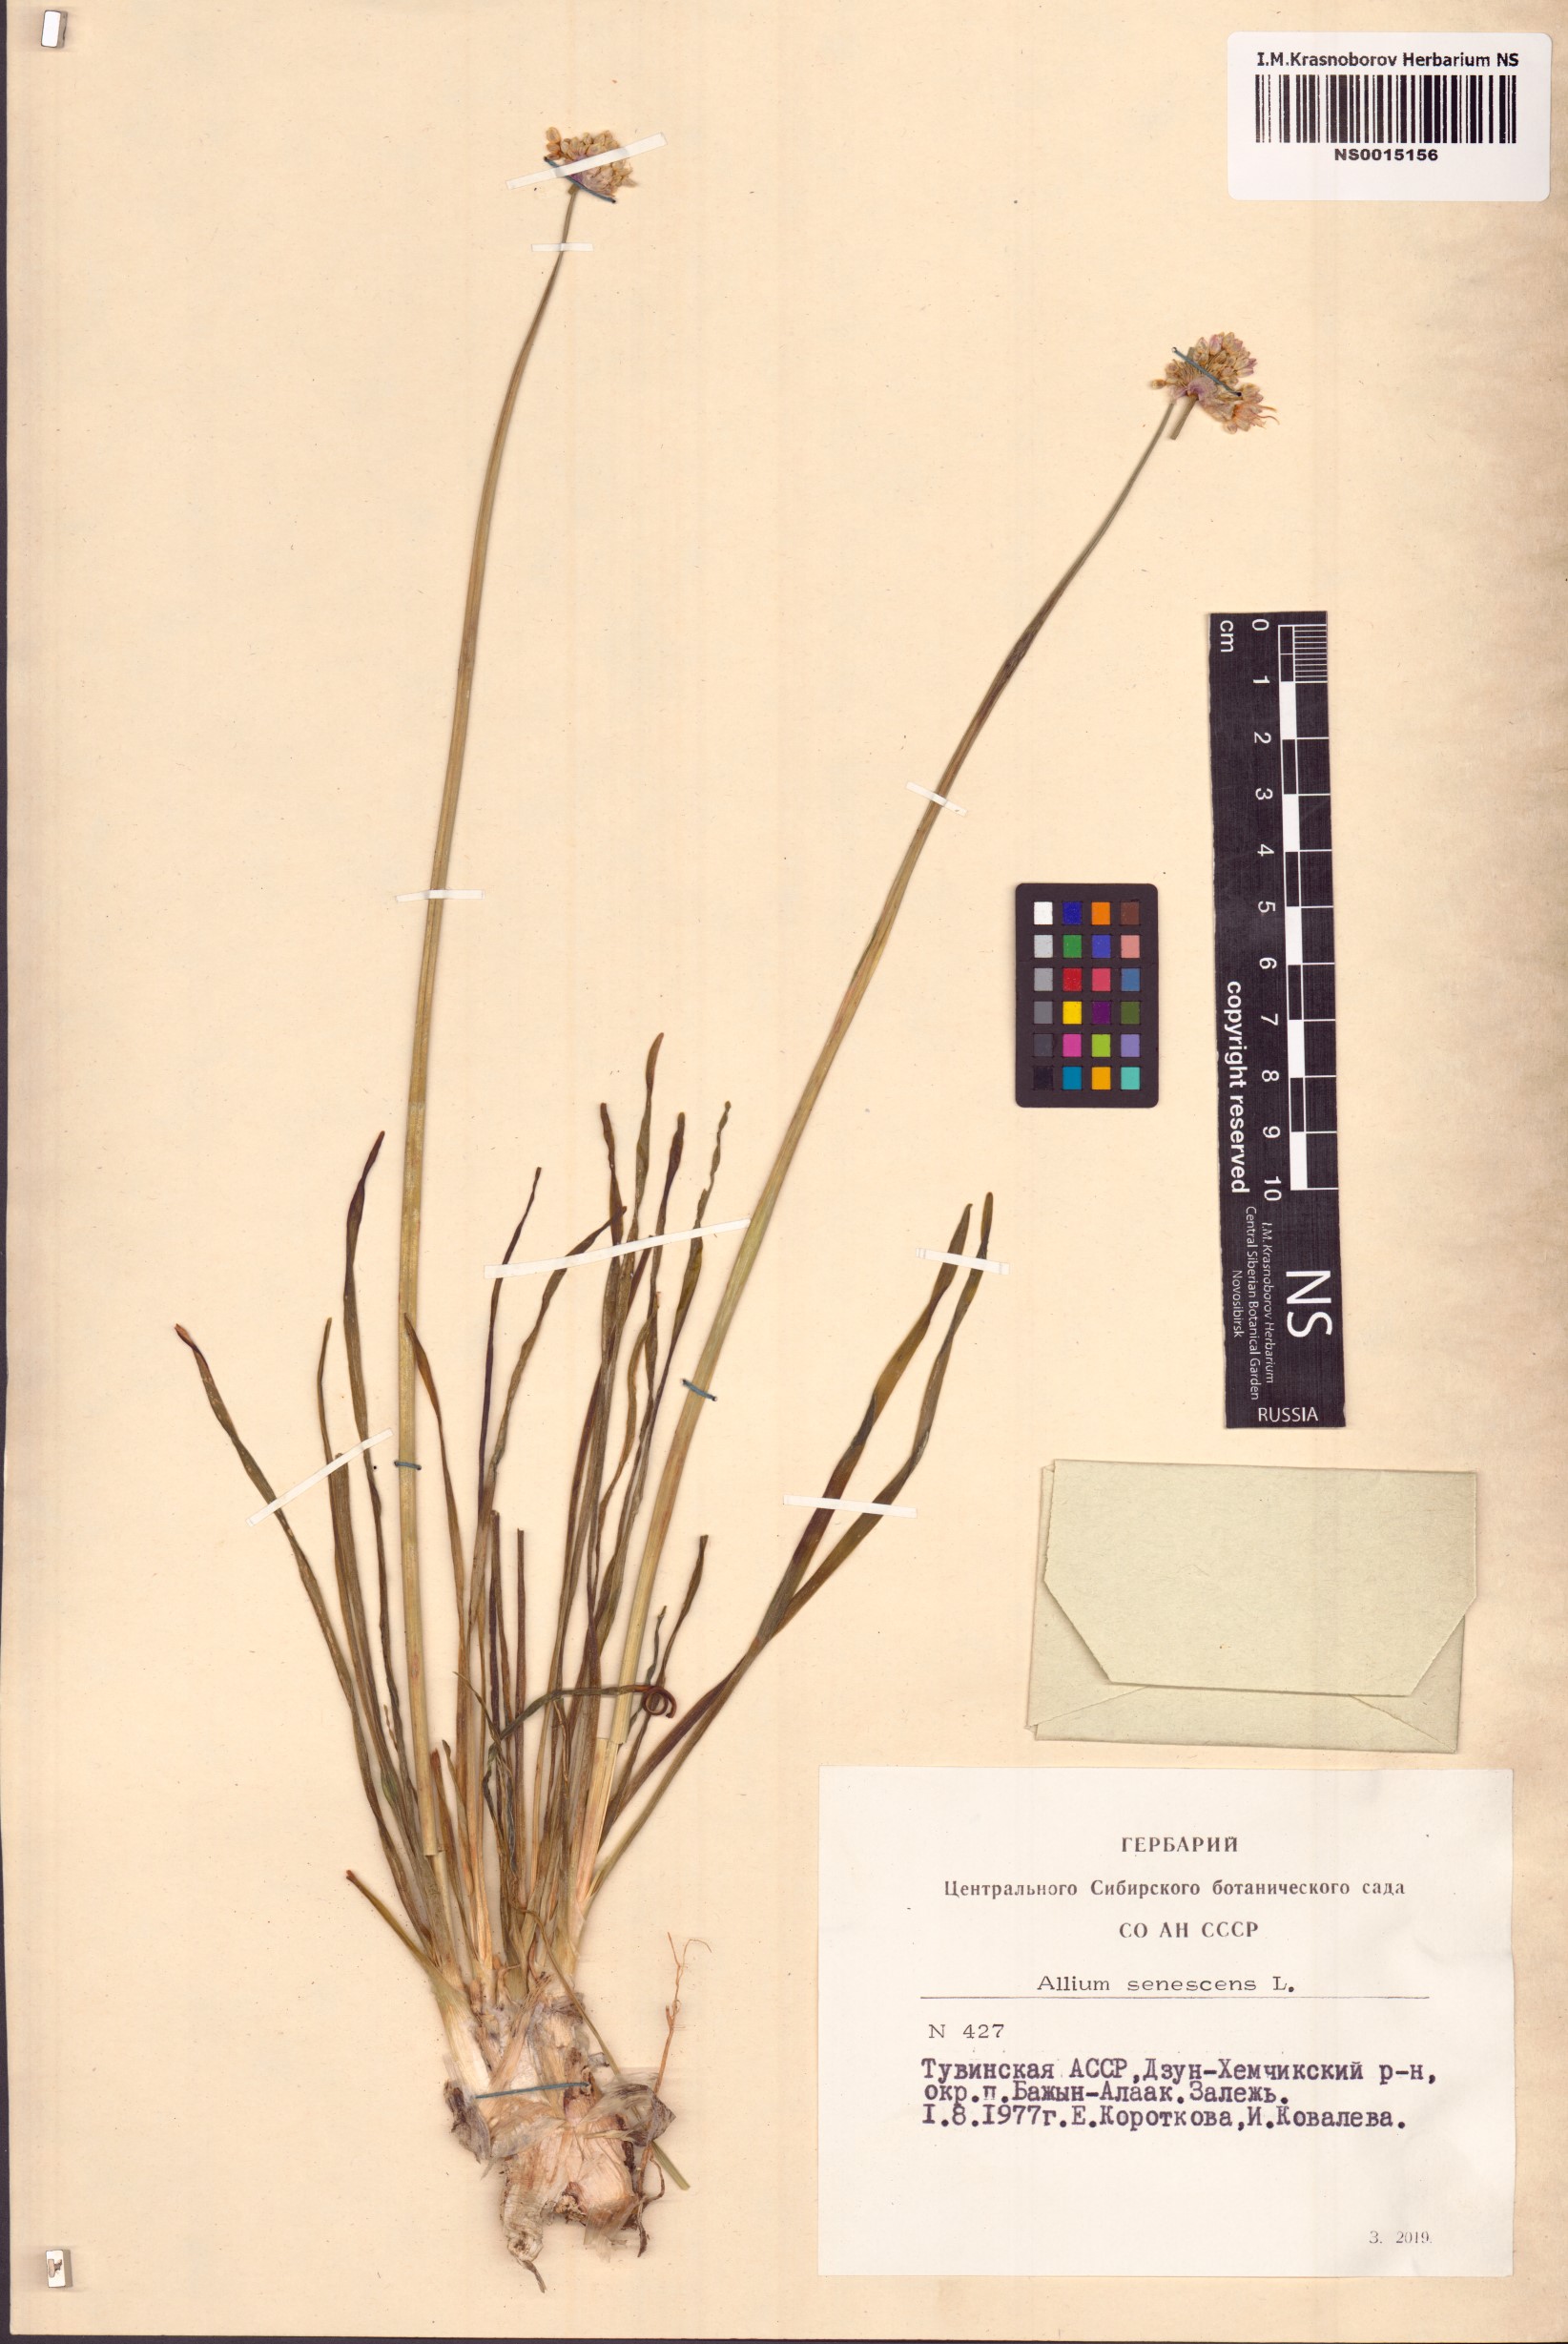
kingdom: Plantae
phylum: Tracheophyta
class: Liliopsida
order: Asparagales
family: Amaryllidaceae
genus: Allium
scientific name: Allium senescens
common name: German garlic
